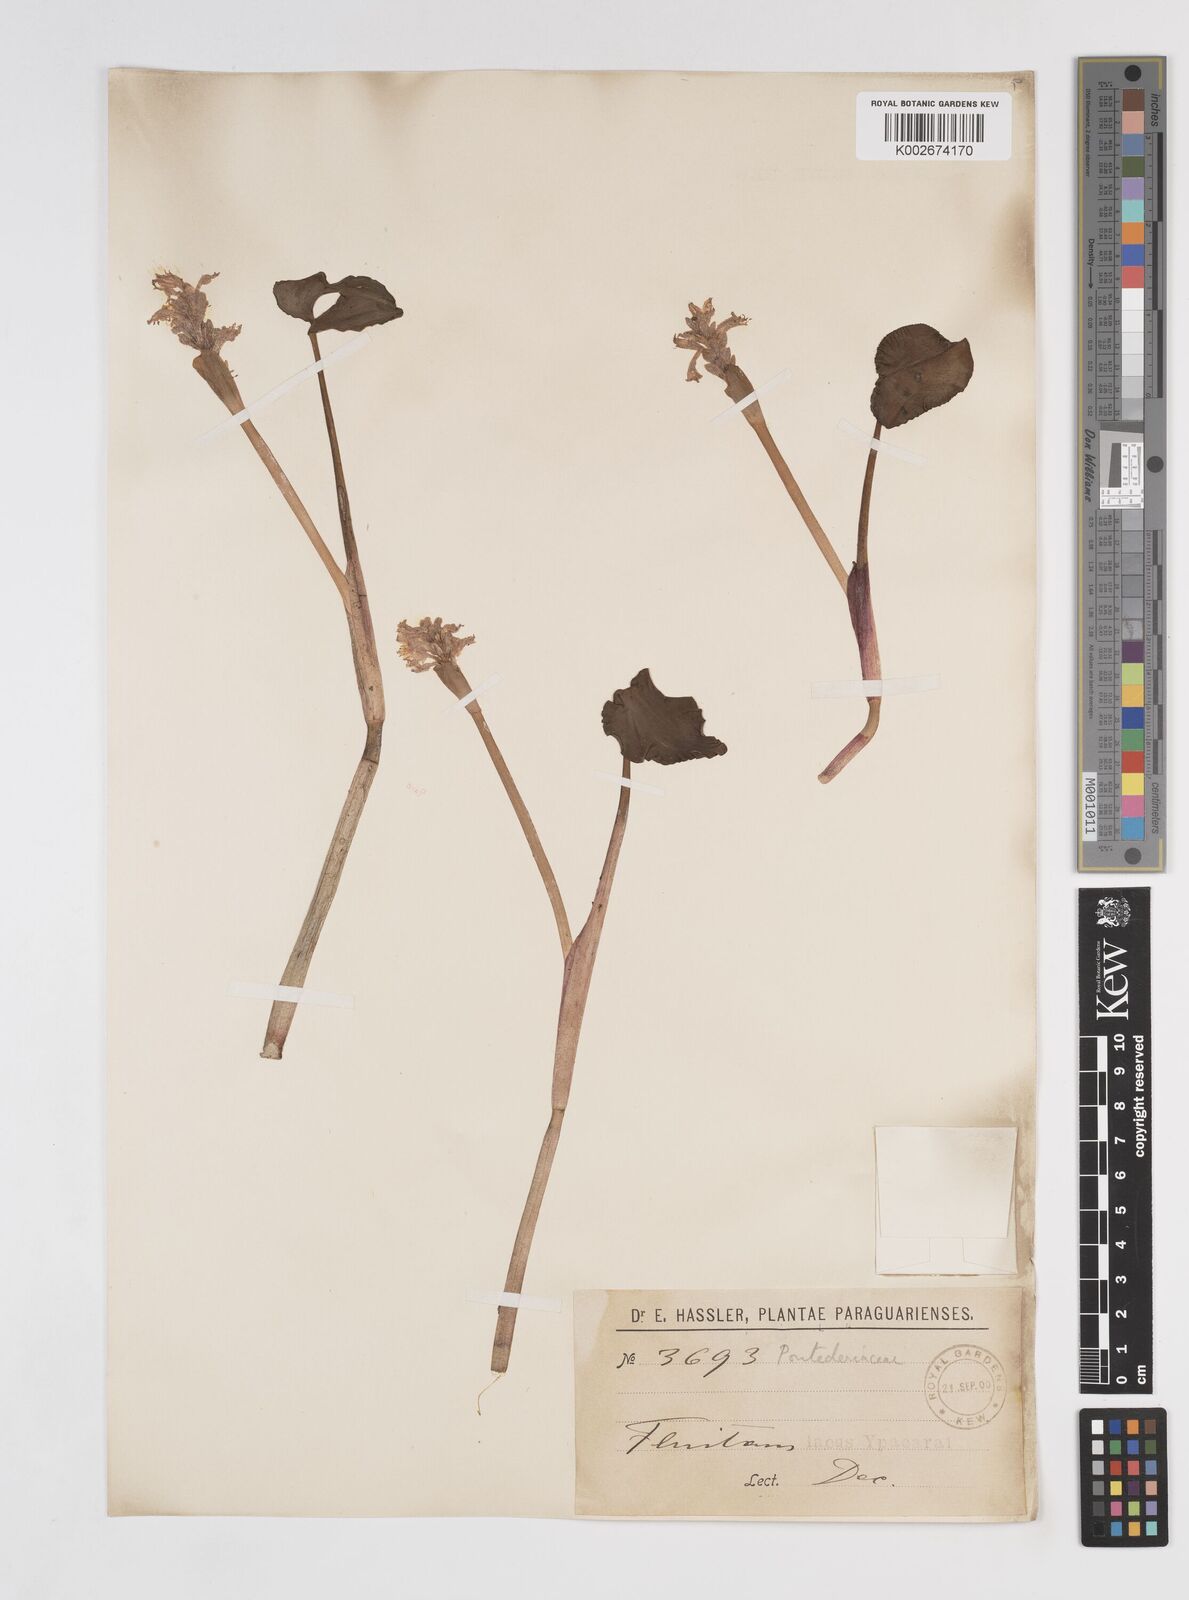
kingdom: Plantae
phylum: Tracheophyta
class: Liliopsida
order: Commelinales
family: Pontederiaceae
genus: Pontederia
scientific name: Pontederia rotundifolia
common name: Tropical pickerel-weed
